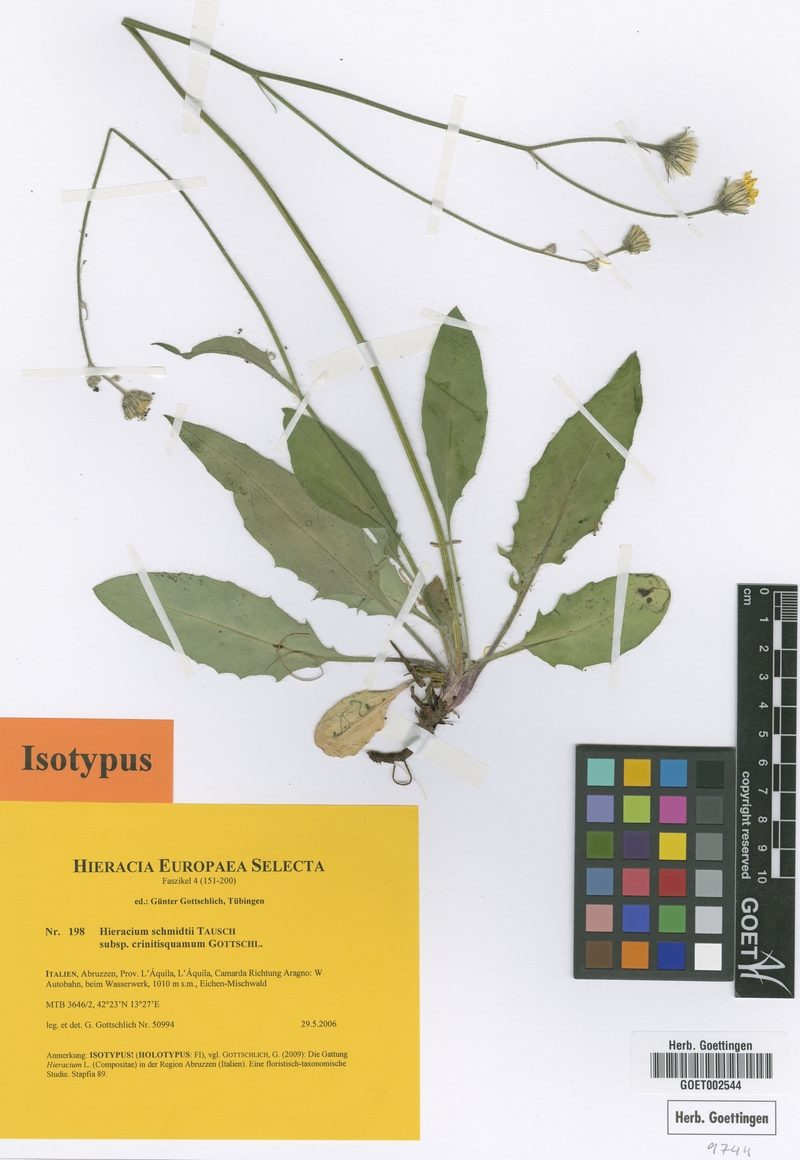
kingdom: Plantae
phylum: Tracheophyta
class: Magnoliopsida
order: Asterales
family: Asteraceae
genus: Hieracium
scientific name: Hieracium schmidtii
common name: Schmidt's hawkweed
